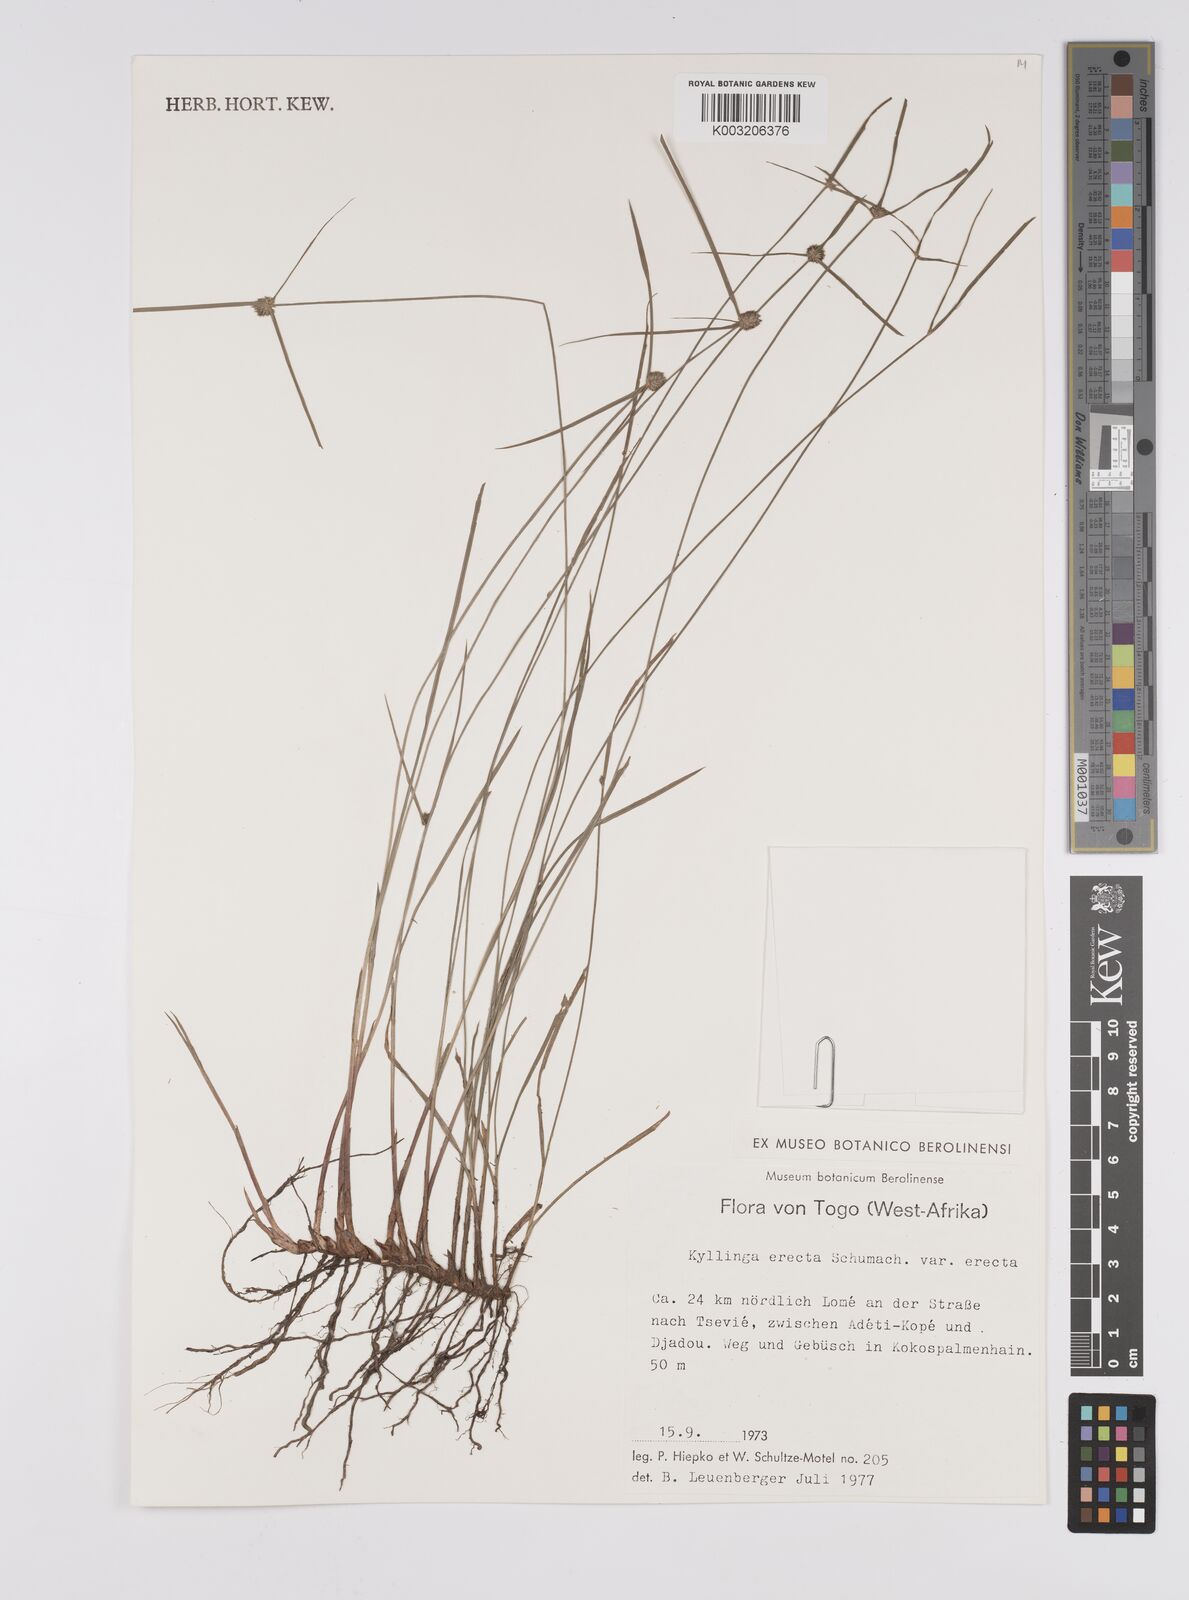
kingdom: Plantae
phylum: Tracheophyta
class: Liliopsida
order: Poales
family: Cyperaceae
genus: Cyperus
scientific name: Cyperus erectus
